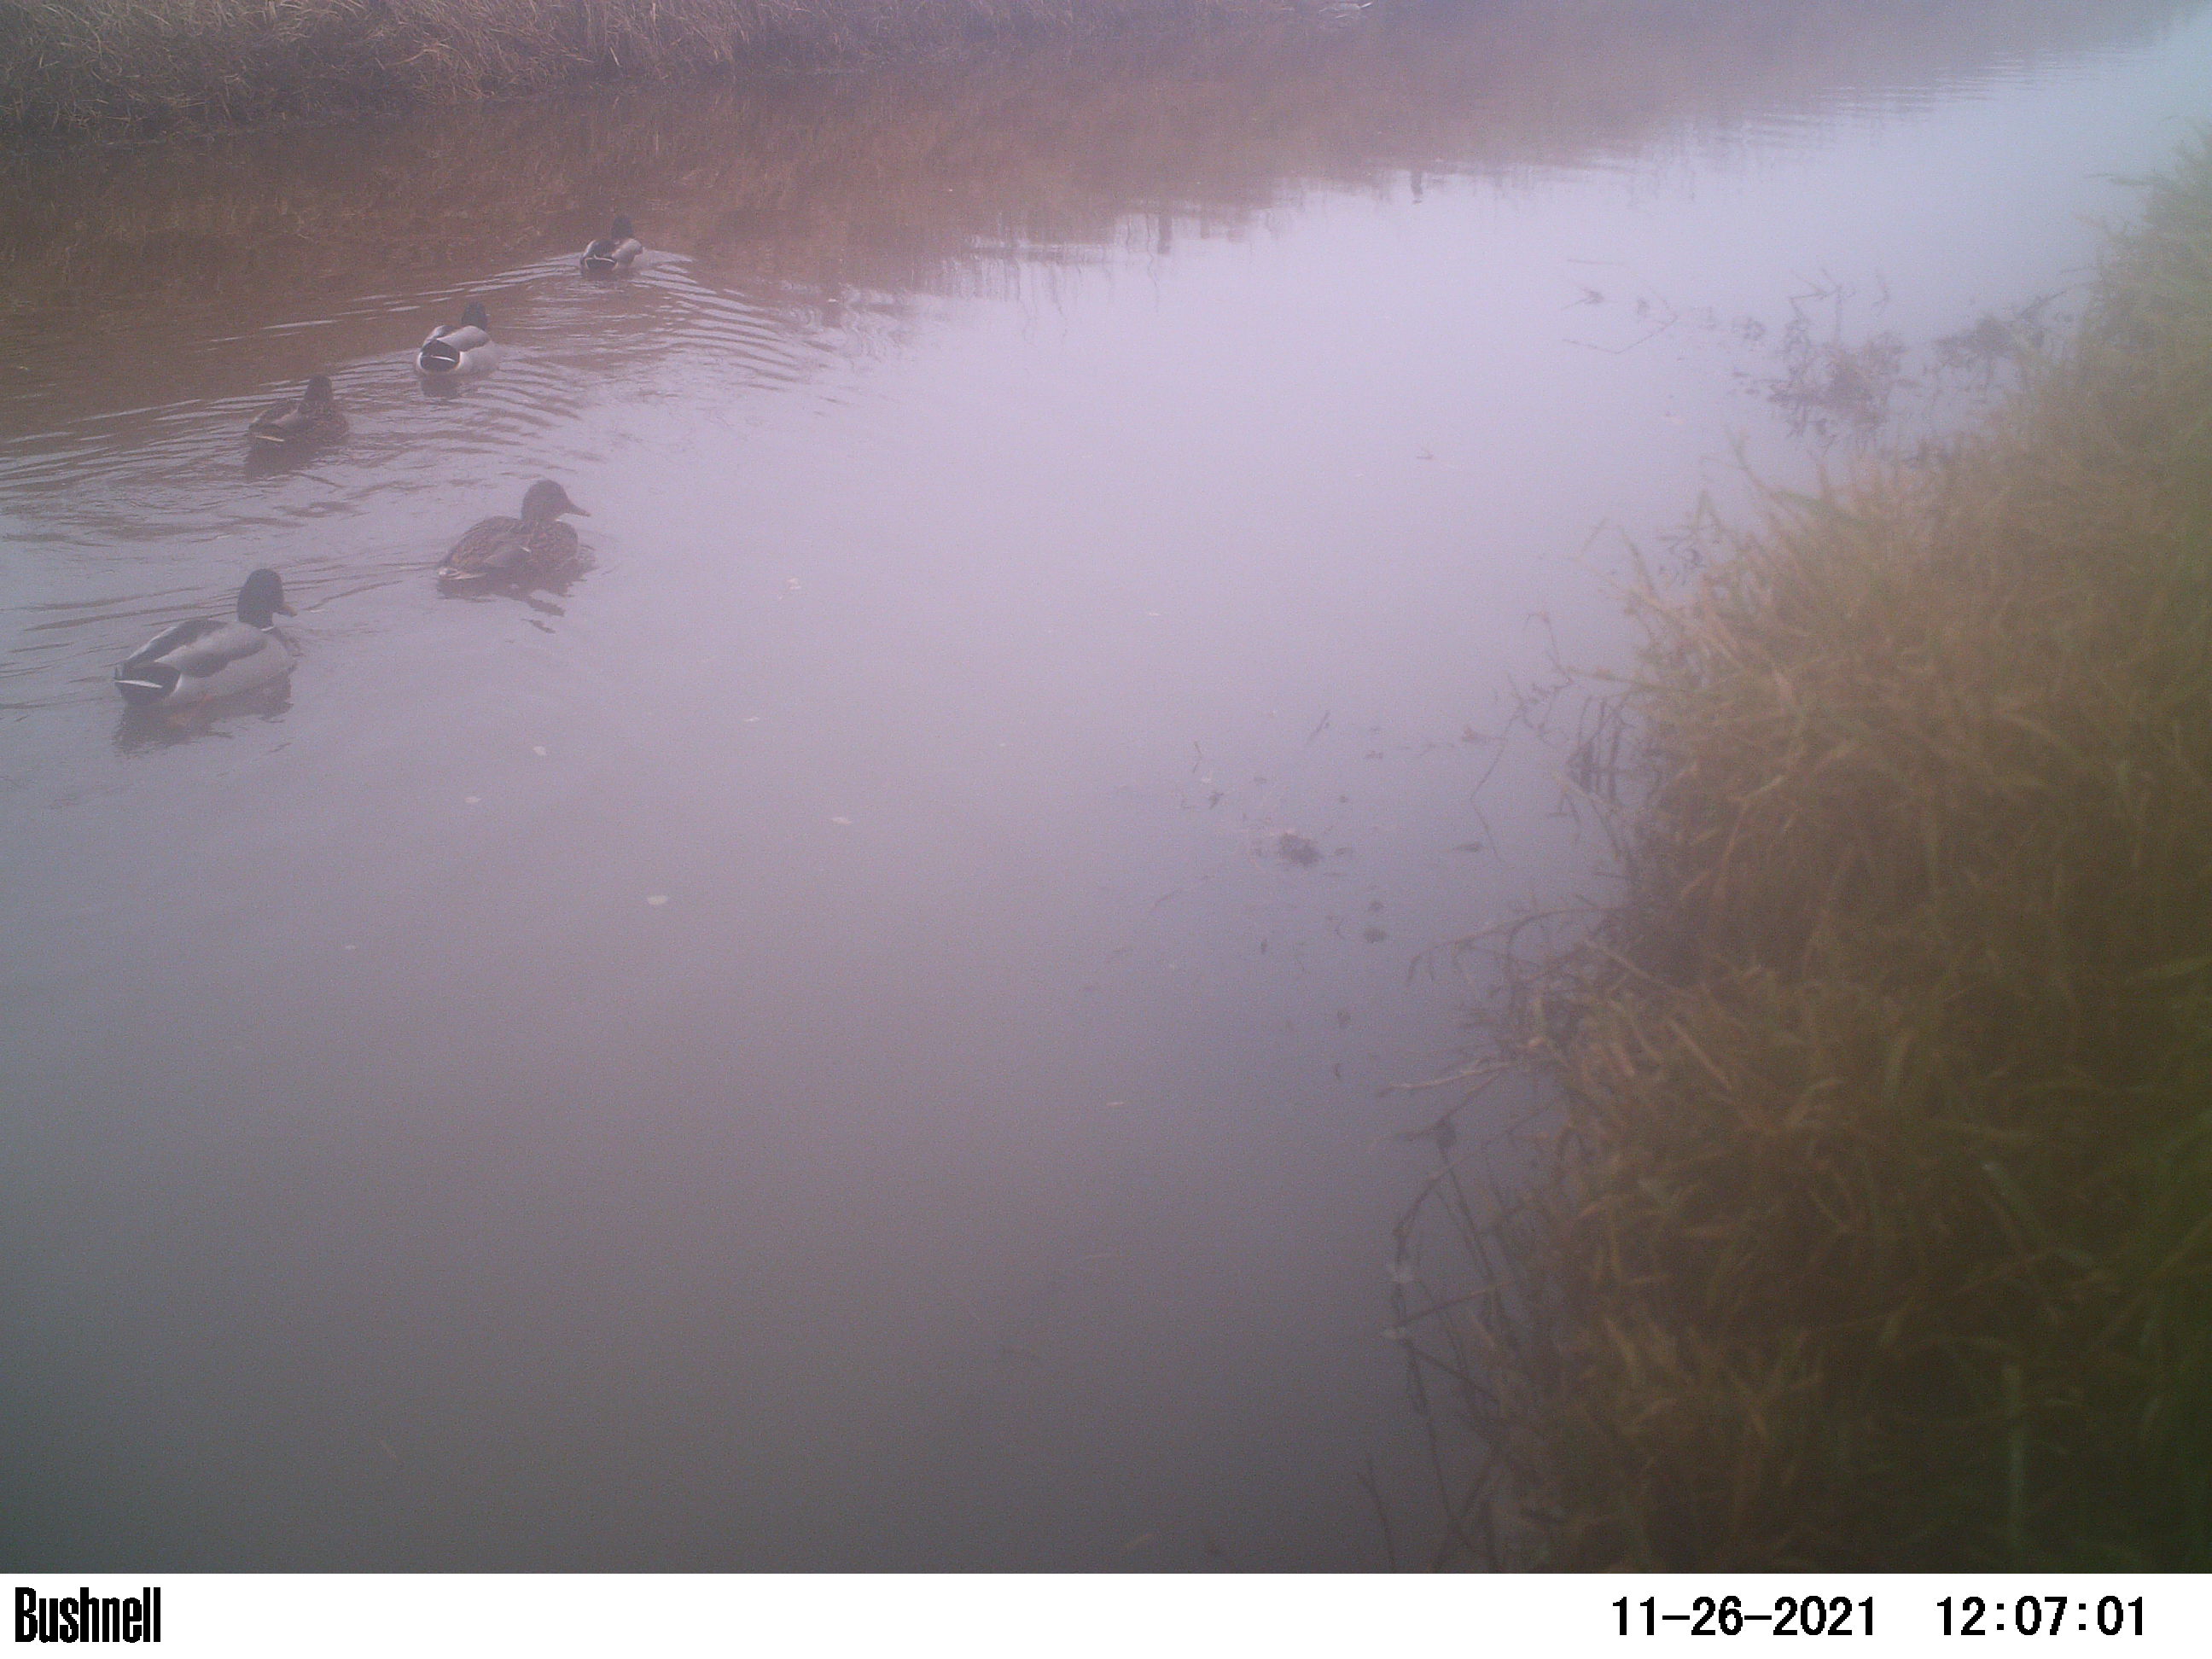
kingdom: Animalia
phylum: Chordata
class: Aves
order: Anseriformes
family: Anatidae
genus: Anas
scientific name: Anas
